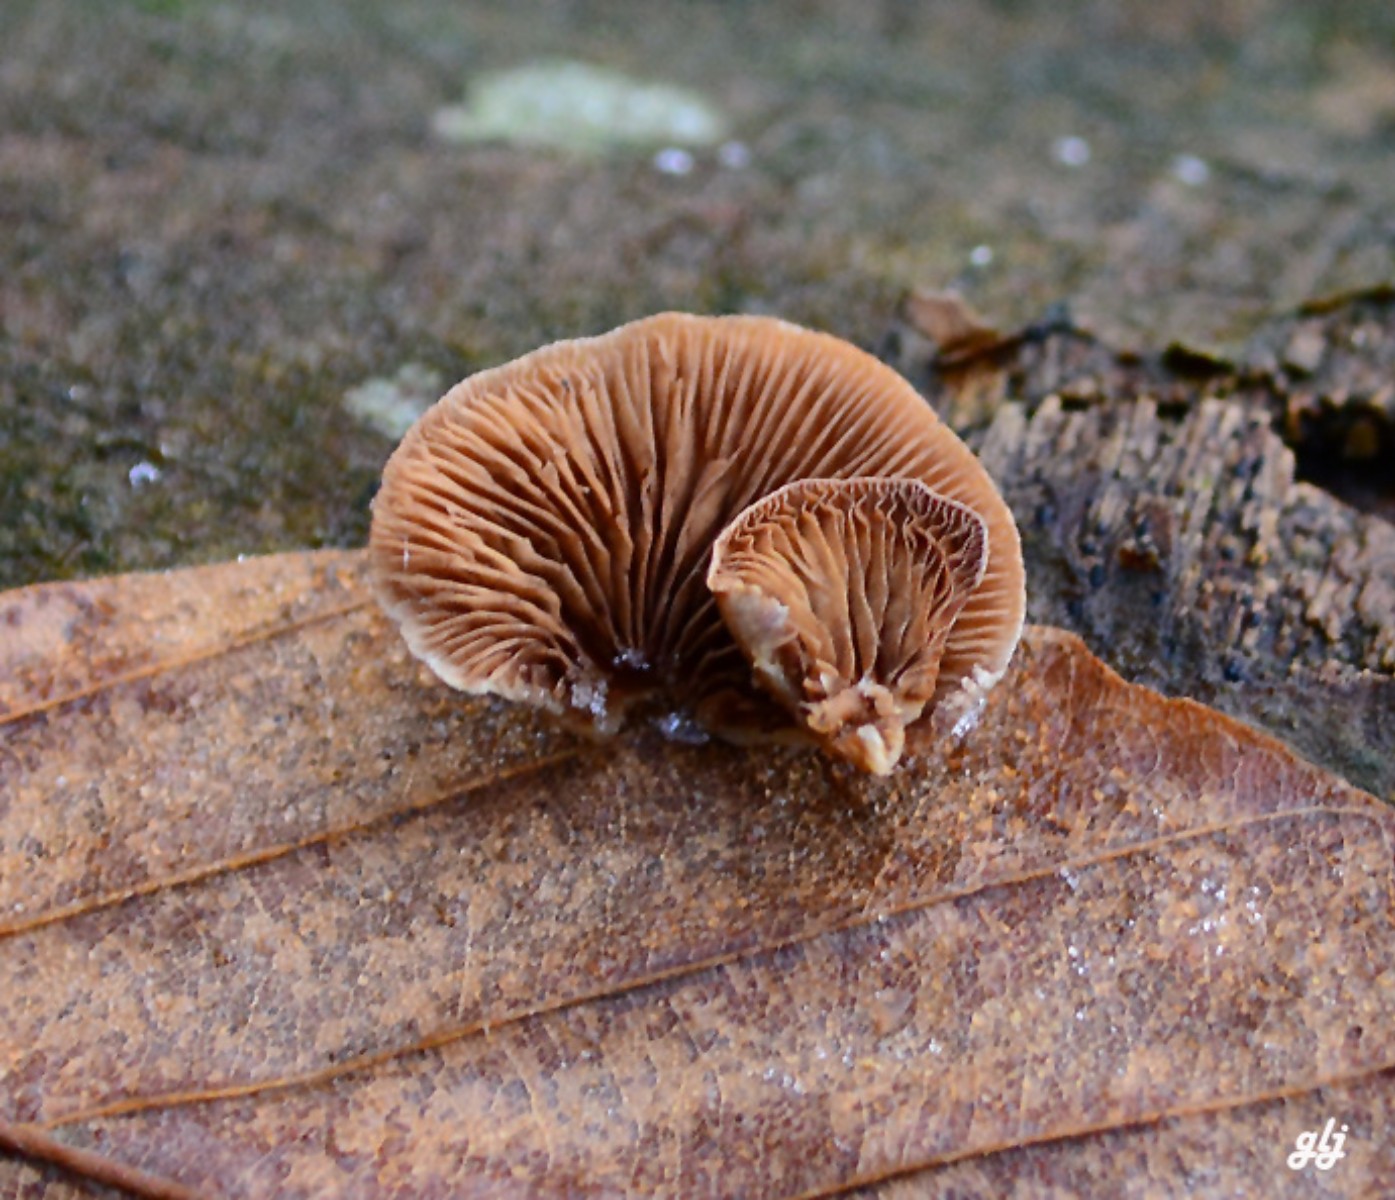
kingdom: Fungi
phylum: Basidiomycota
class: Agaricomycetes
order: Agaricales
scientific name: Agaricales
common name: champignonordenen
